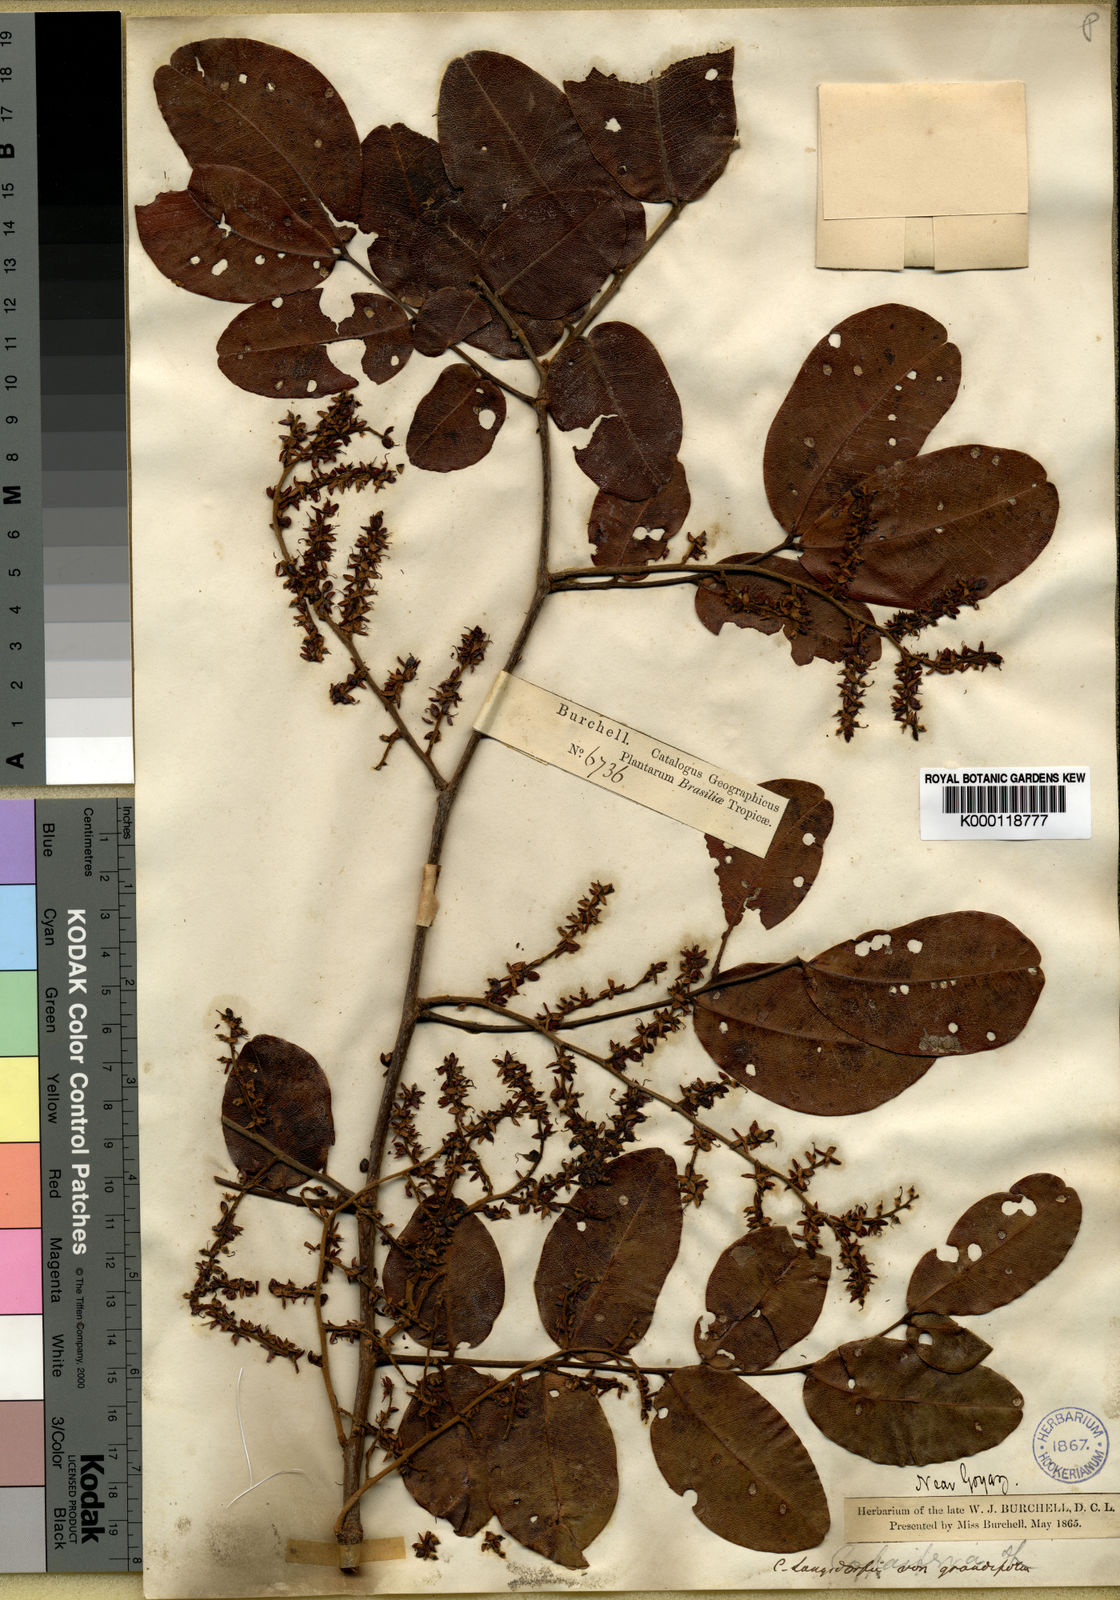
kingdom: Plantae
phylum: Tracheophyta
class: Magnoliopsida
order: Fabales
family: Fabaceae
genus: Copaifera
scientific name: Copaifera langsdorffii
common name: Brazilian diesel tree
